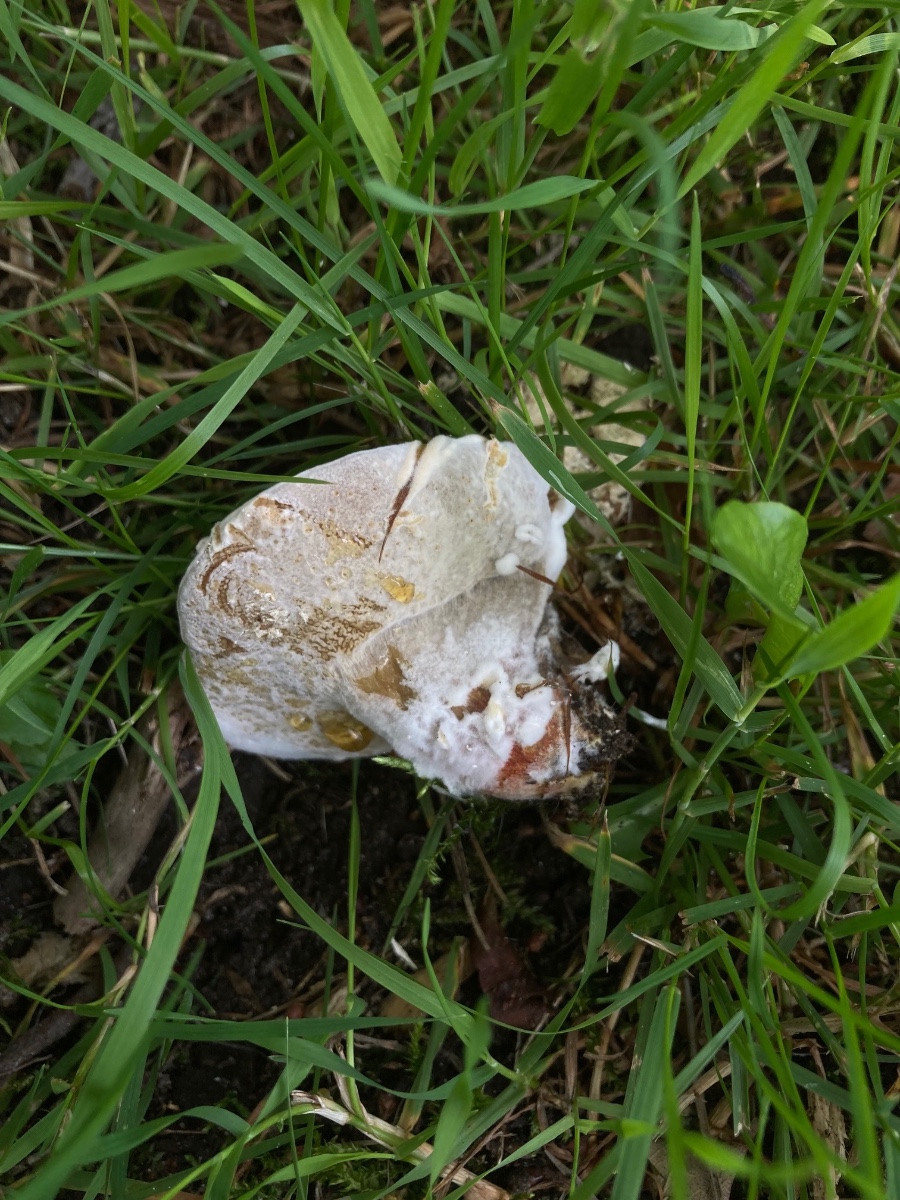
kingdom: Fungi
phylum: Ascomycota
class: Sordariomycetes
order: Hypocreales
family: Hypocreaceae
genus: Hypomyces
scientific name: Hypomyces microspermus
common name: dværgrørhat-snylteskorpe
